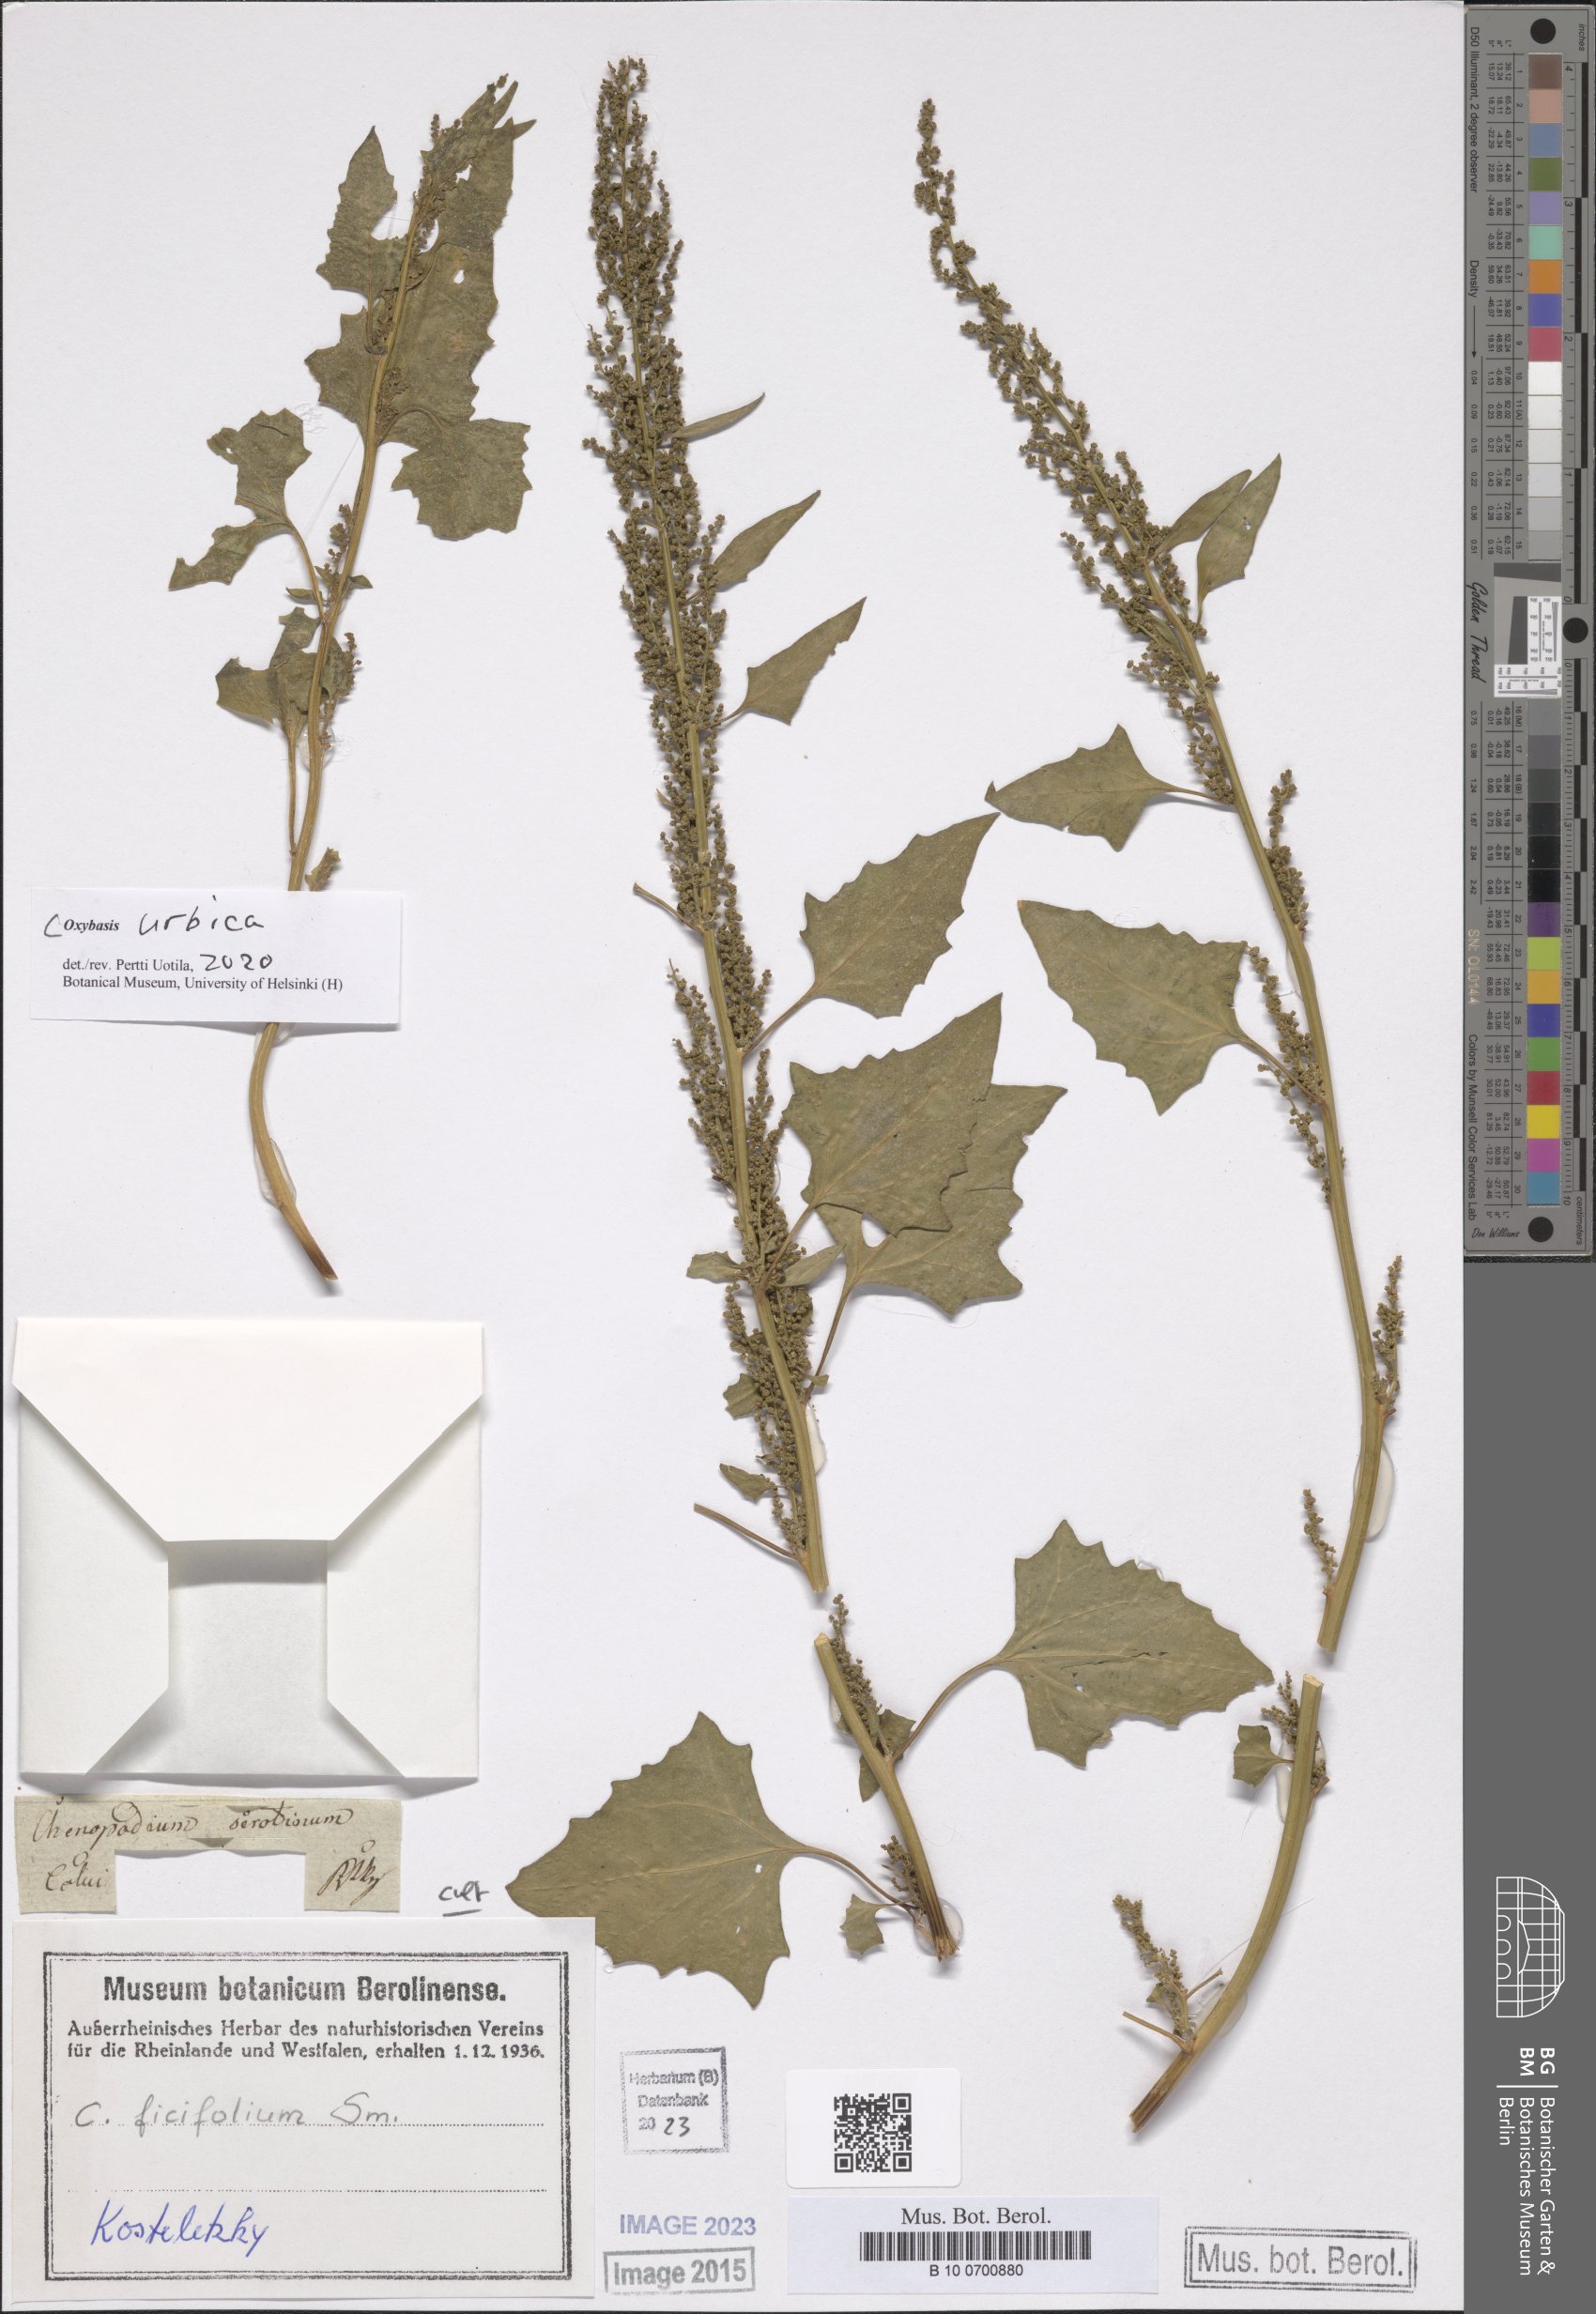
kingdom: Plantae
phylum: Tracheophyta
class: Magnoliopsida
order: Caryophyllales
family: Amaranthaceae
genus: Oxybasis
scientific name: Oxybasis urbica
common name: City goosefoot
